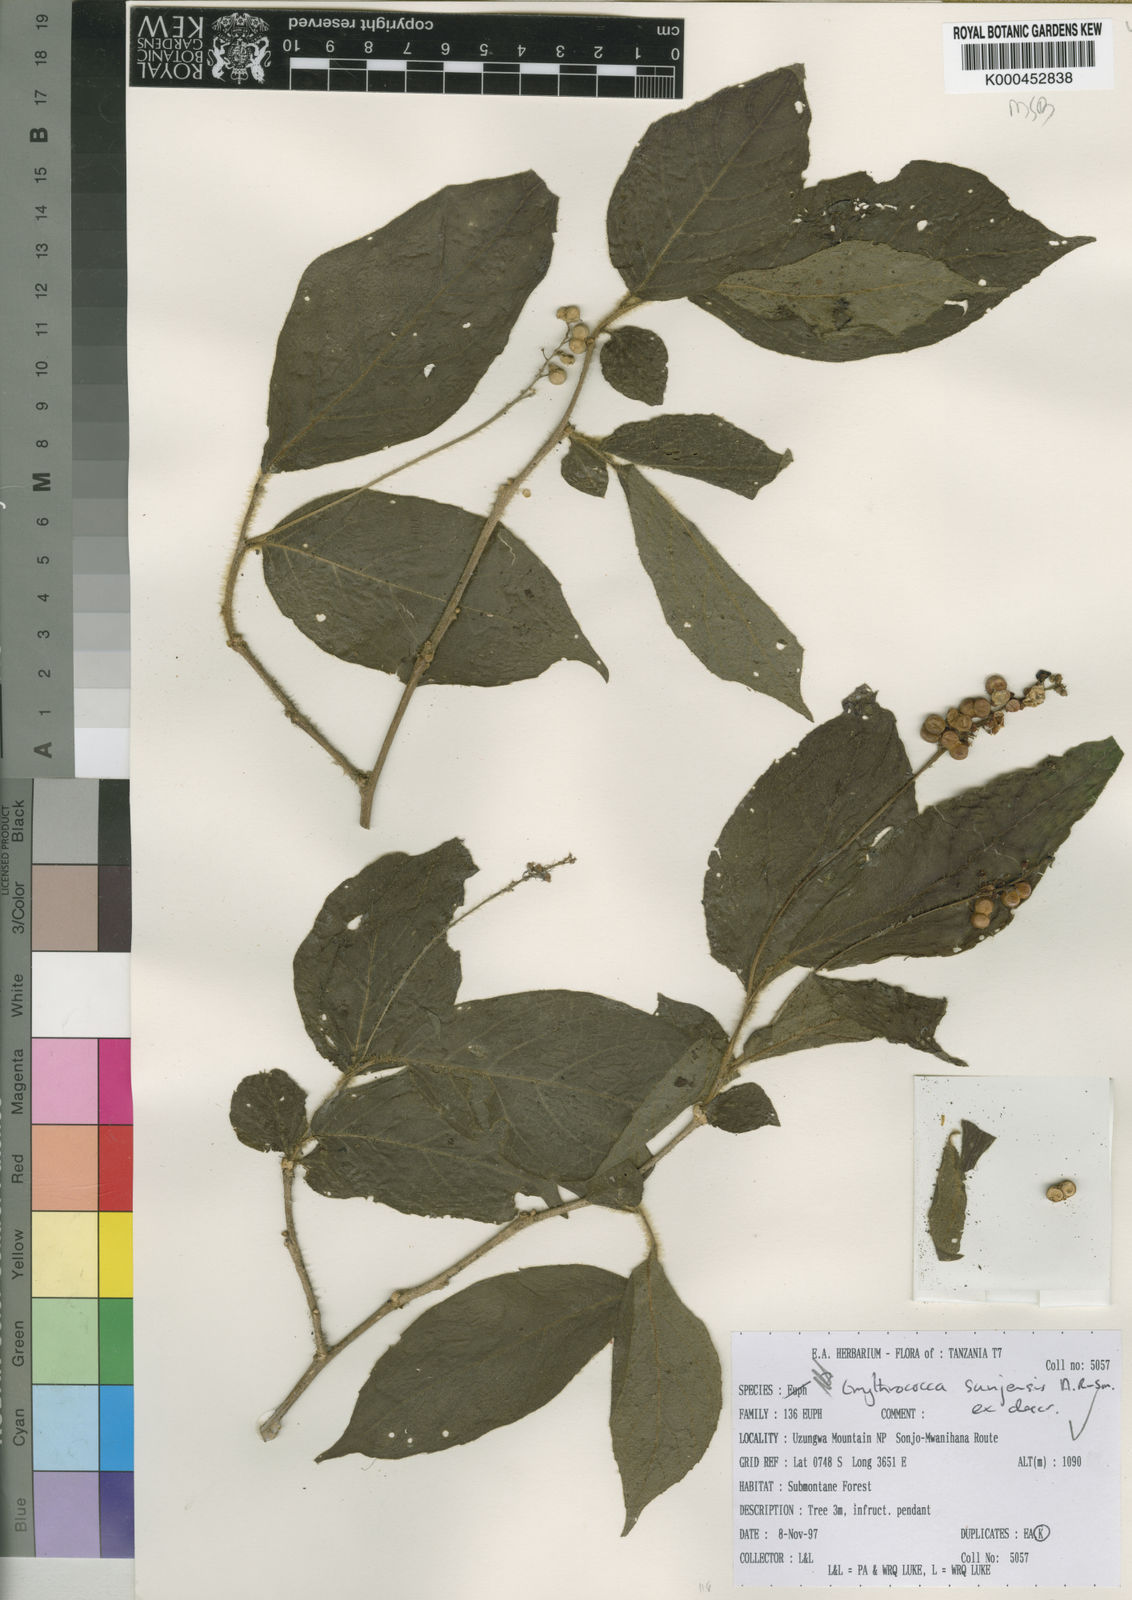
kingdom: Plantae
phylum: Tracheophyta
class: Magnoliopsida
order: Malpighiales
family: Euphorbiaceae
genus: Erythrococca
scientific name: Erythrococca
